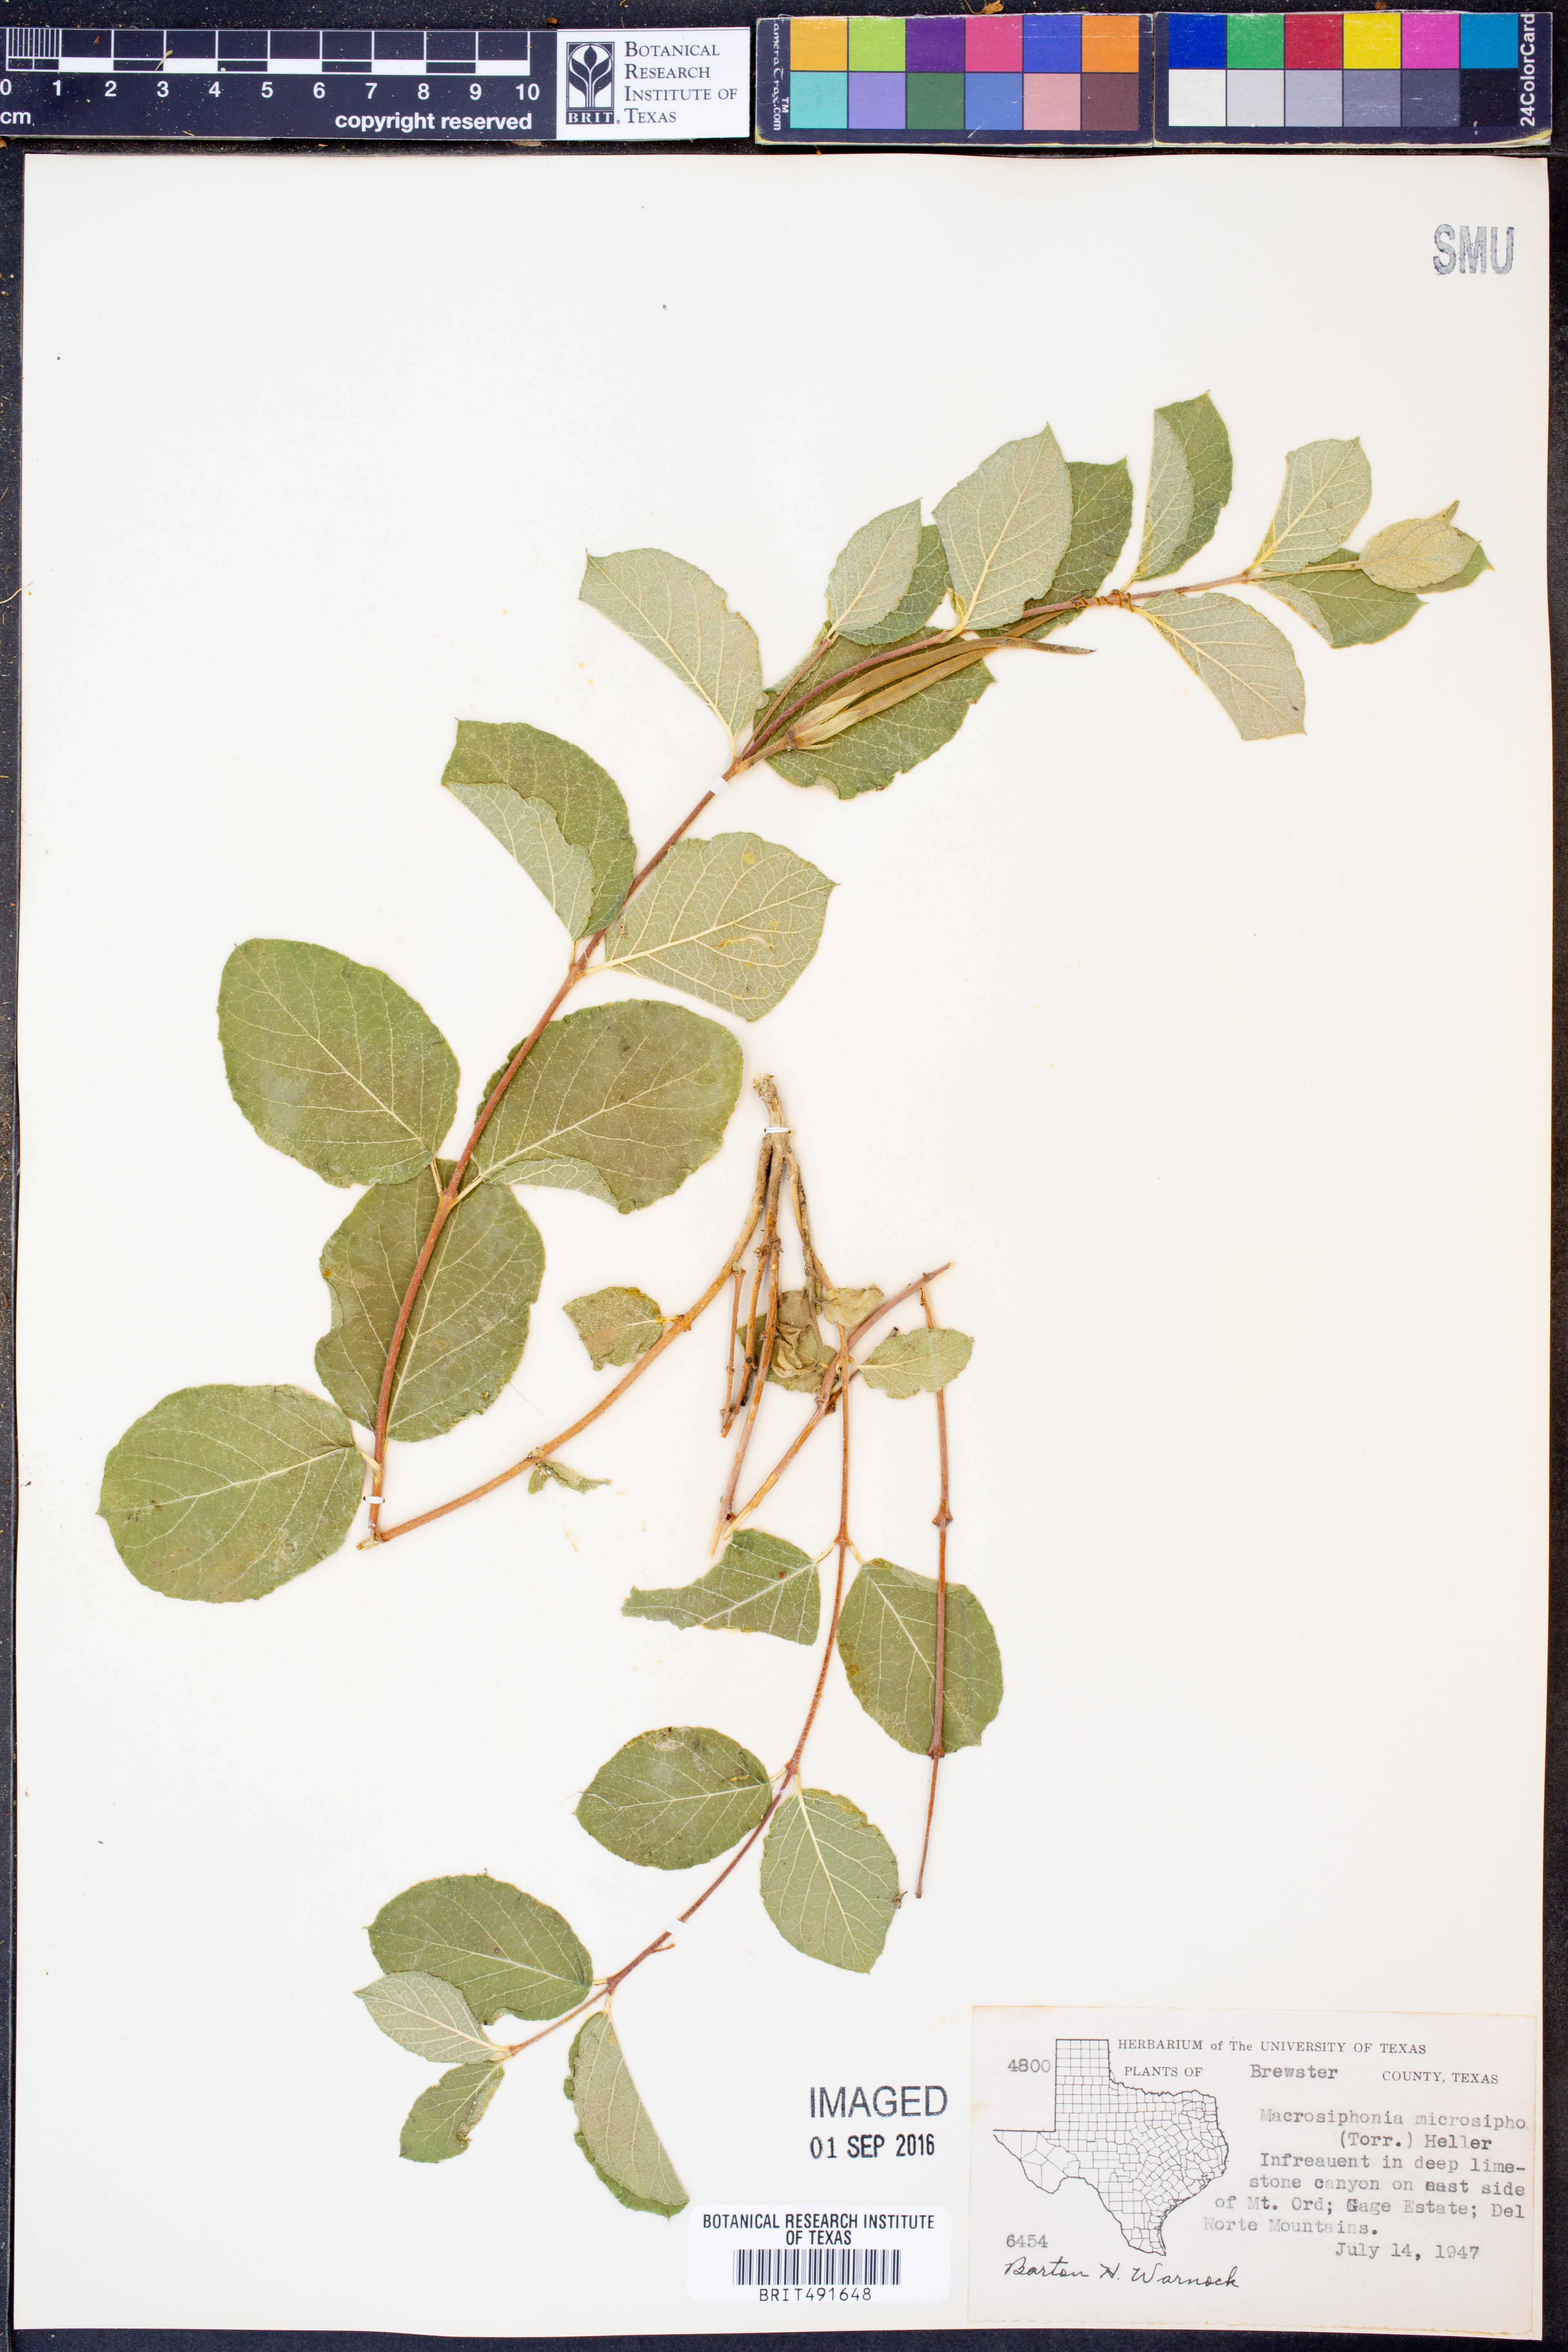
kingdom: Plantae
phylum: Tracheophyta
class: Magnoliopsida
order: Gentianales
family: Apocynaceae
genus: Mandevilla
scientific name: Mandevilla macrosiphon
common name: Plateau rocktrumpet
